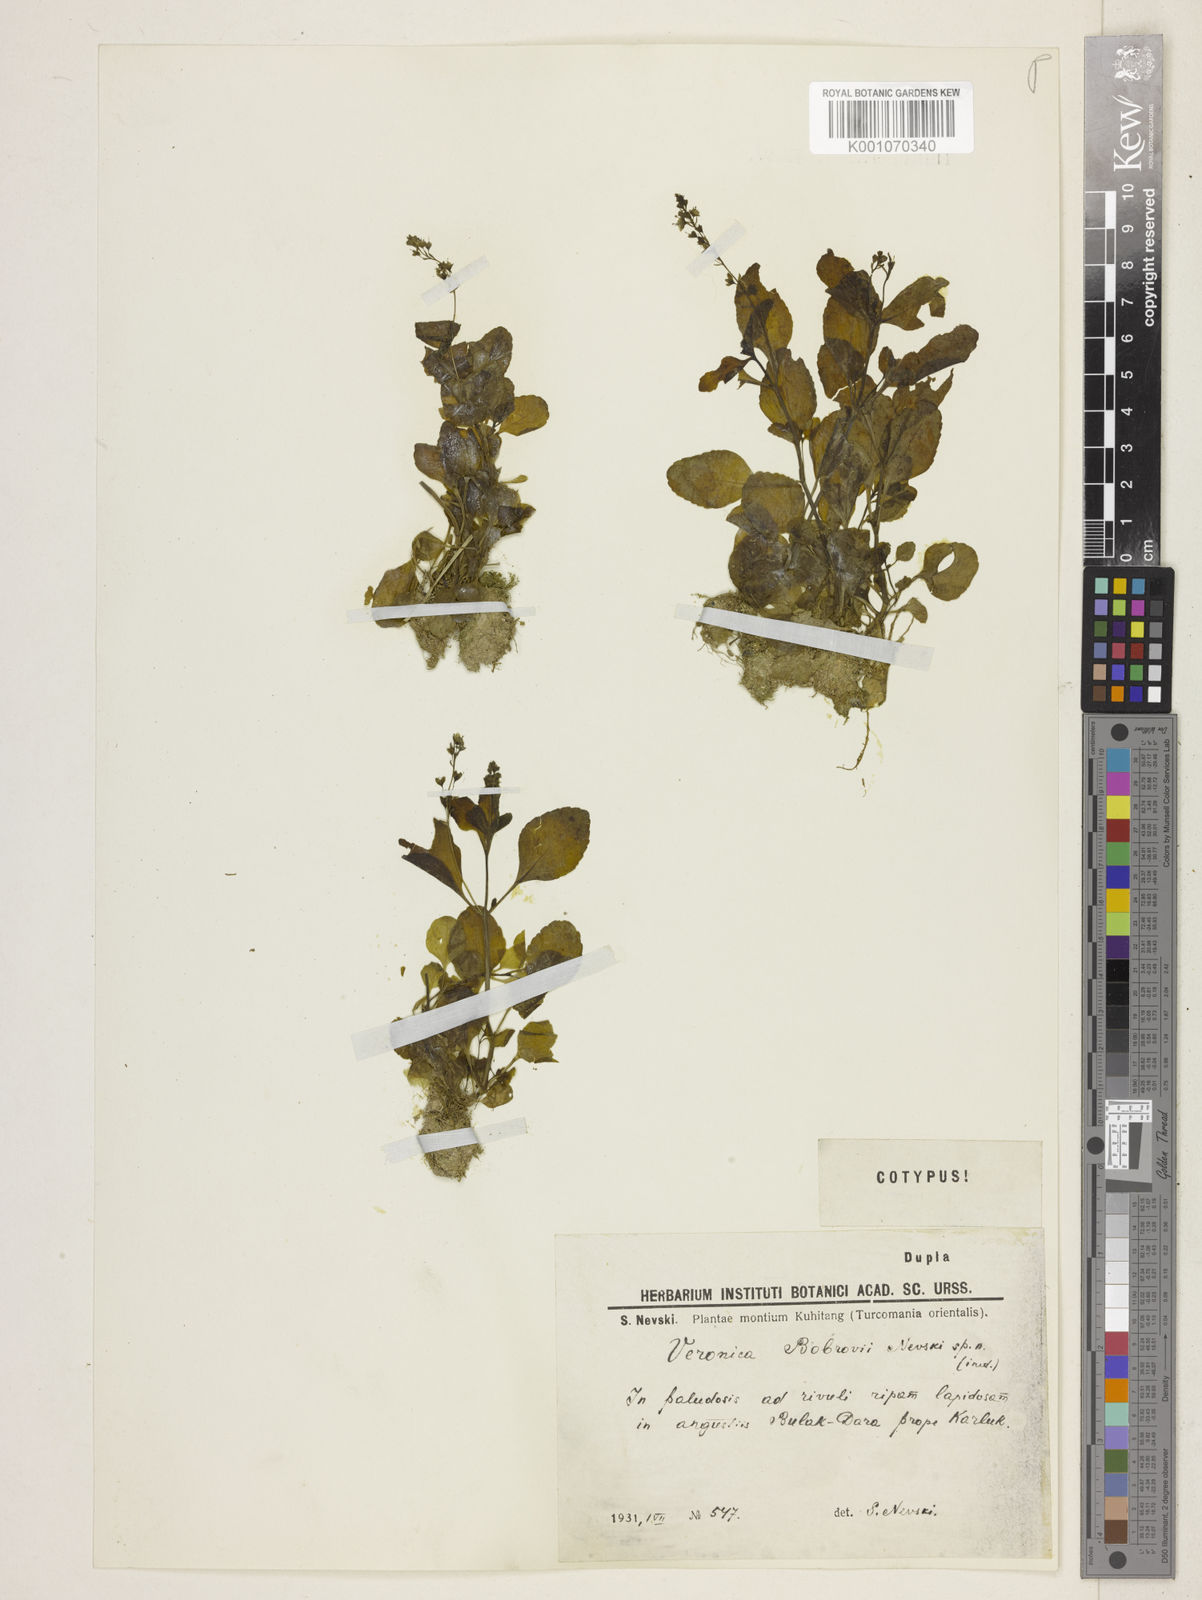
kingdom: Plantae
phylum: Tracheophyta
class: Magnoliopsida
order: Lamiales
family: Plantaginaceae
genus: Veronica
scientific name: Veronica oxycarpa
